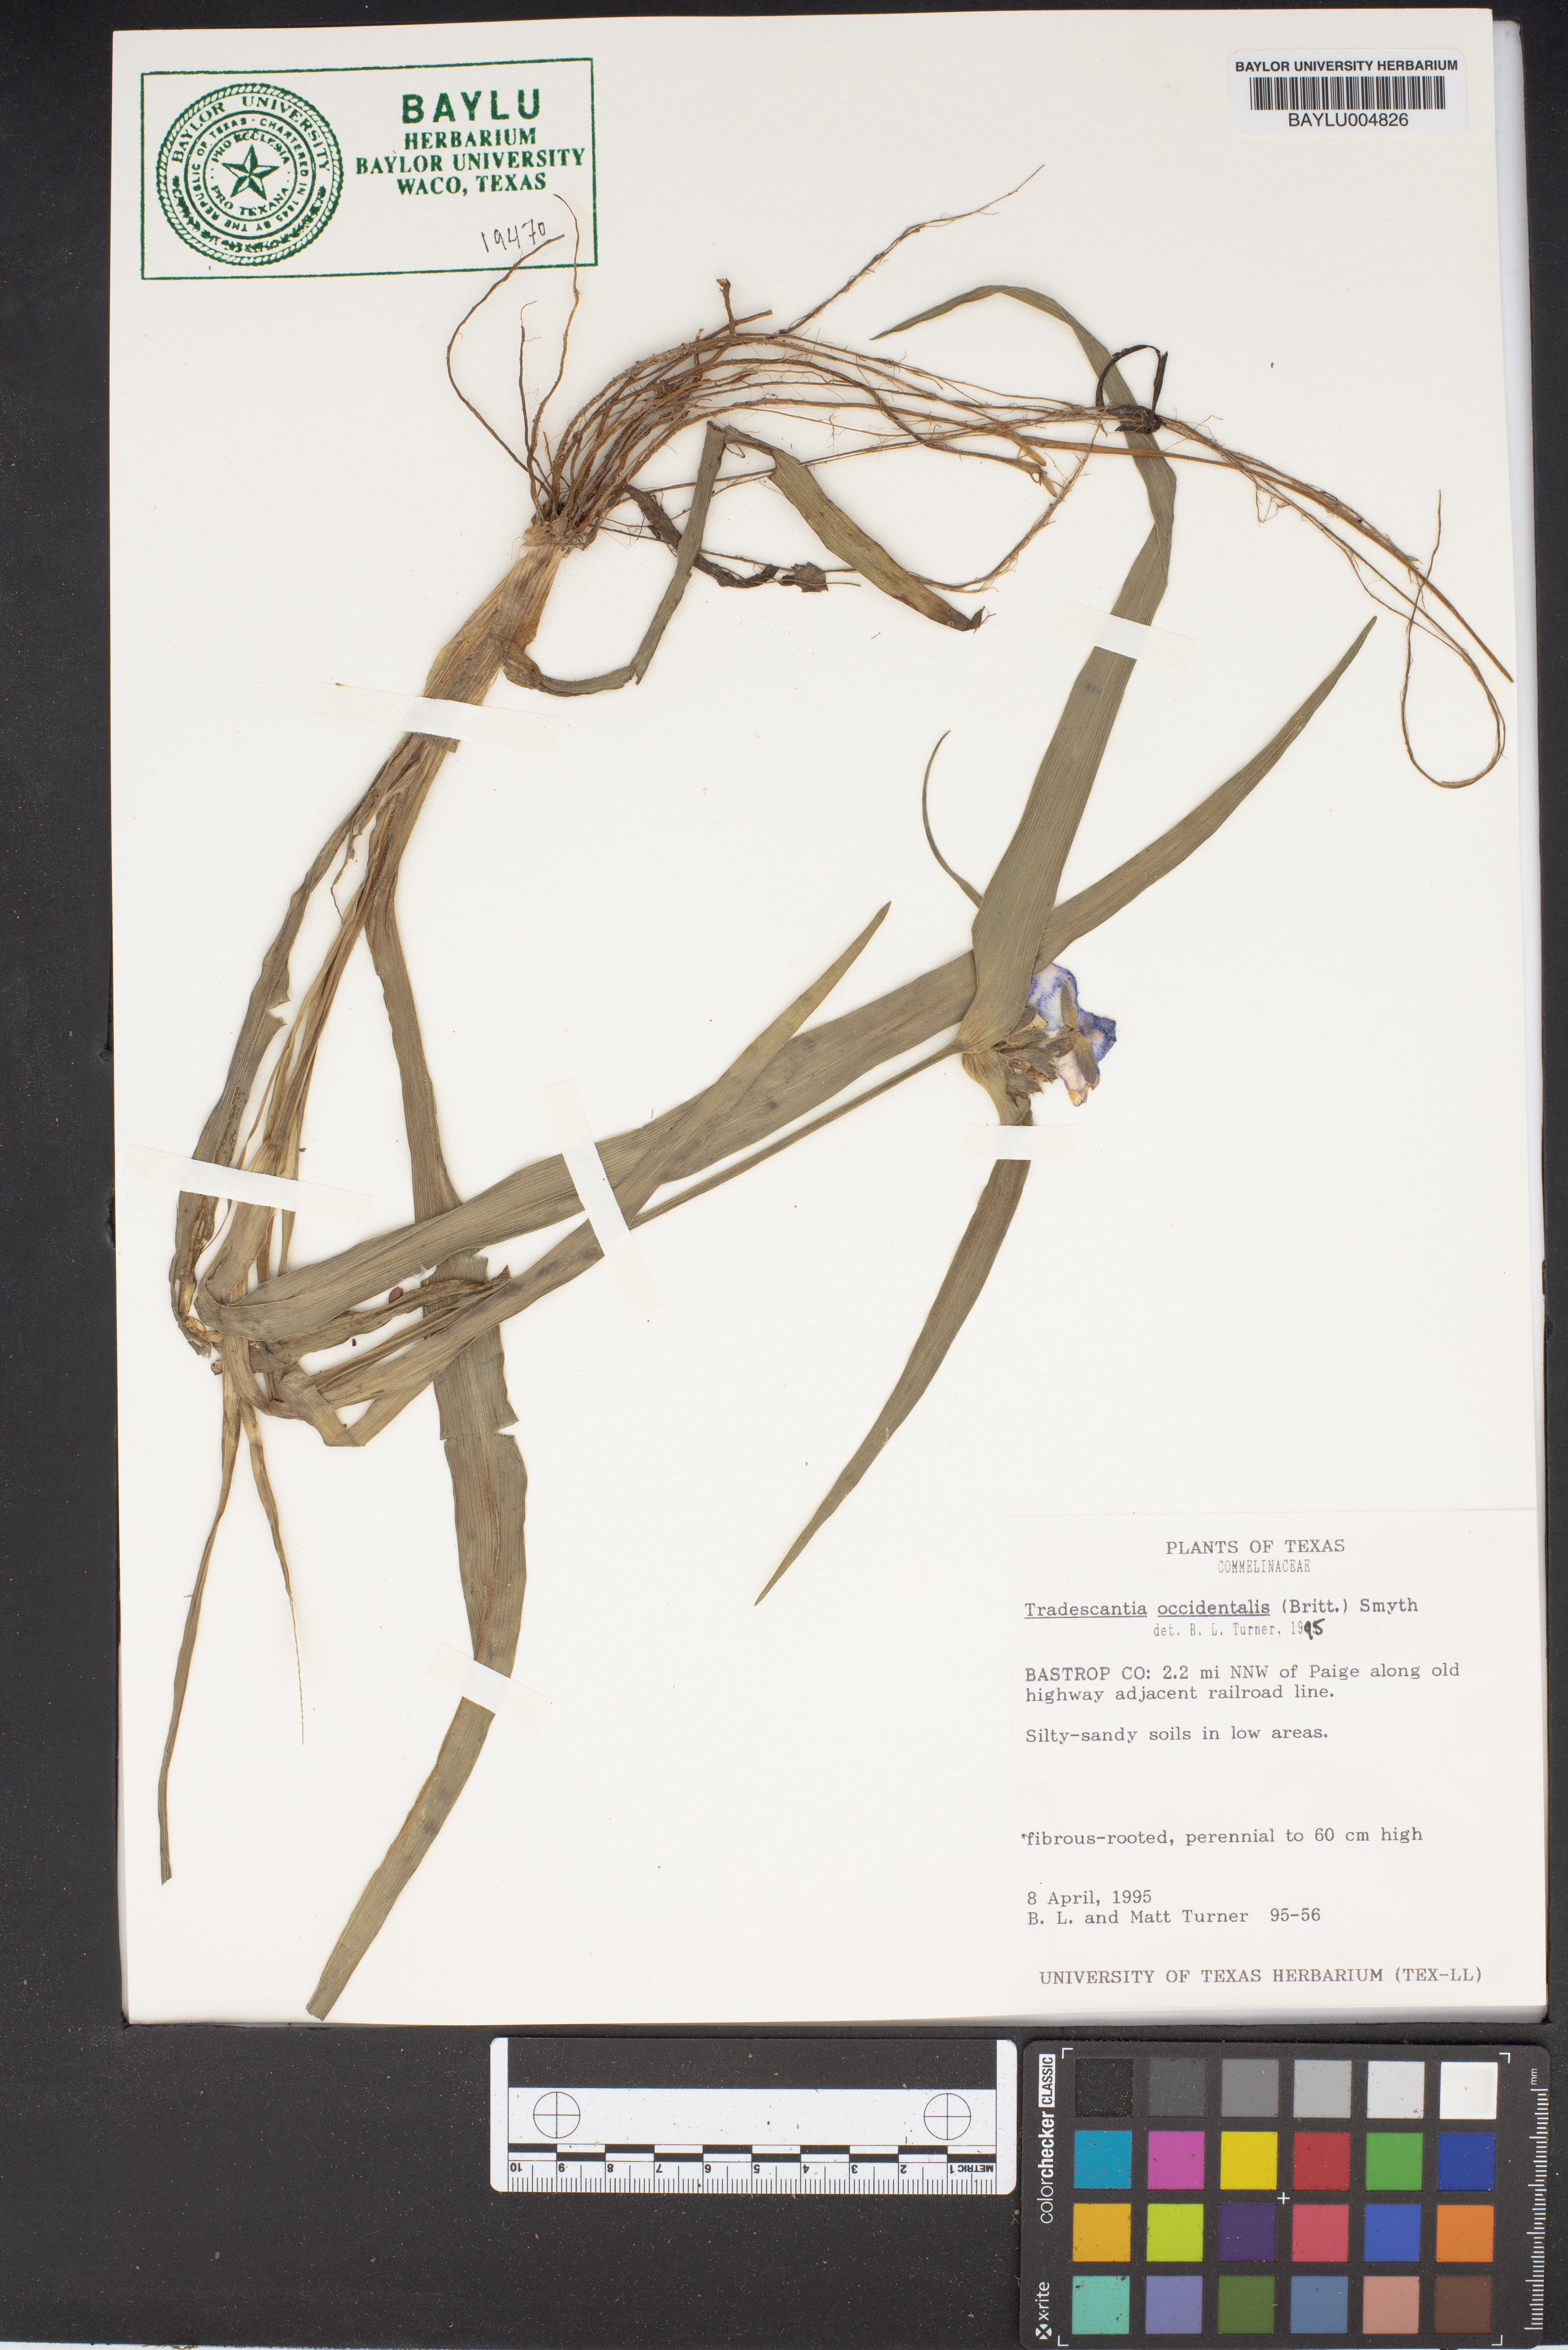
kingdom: Plantae
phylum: Tracheophyta
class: Liliopsida
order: Commelinales
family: Commelinaceae
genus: Tradescantia
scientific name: Tradescantia occidentalis
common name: Prairie spiderwort
